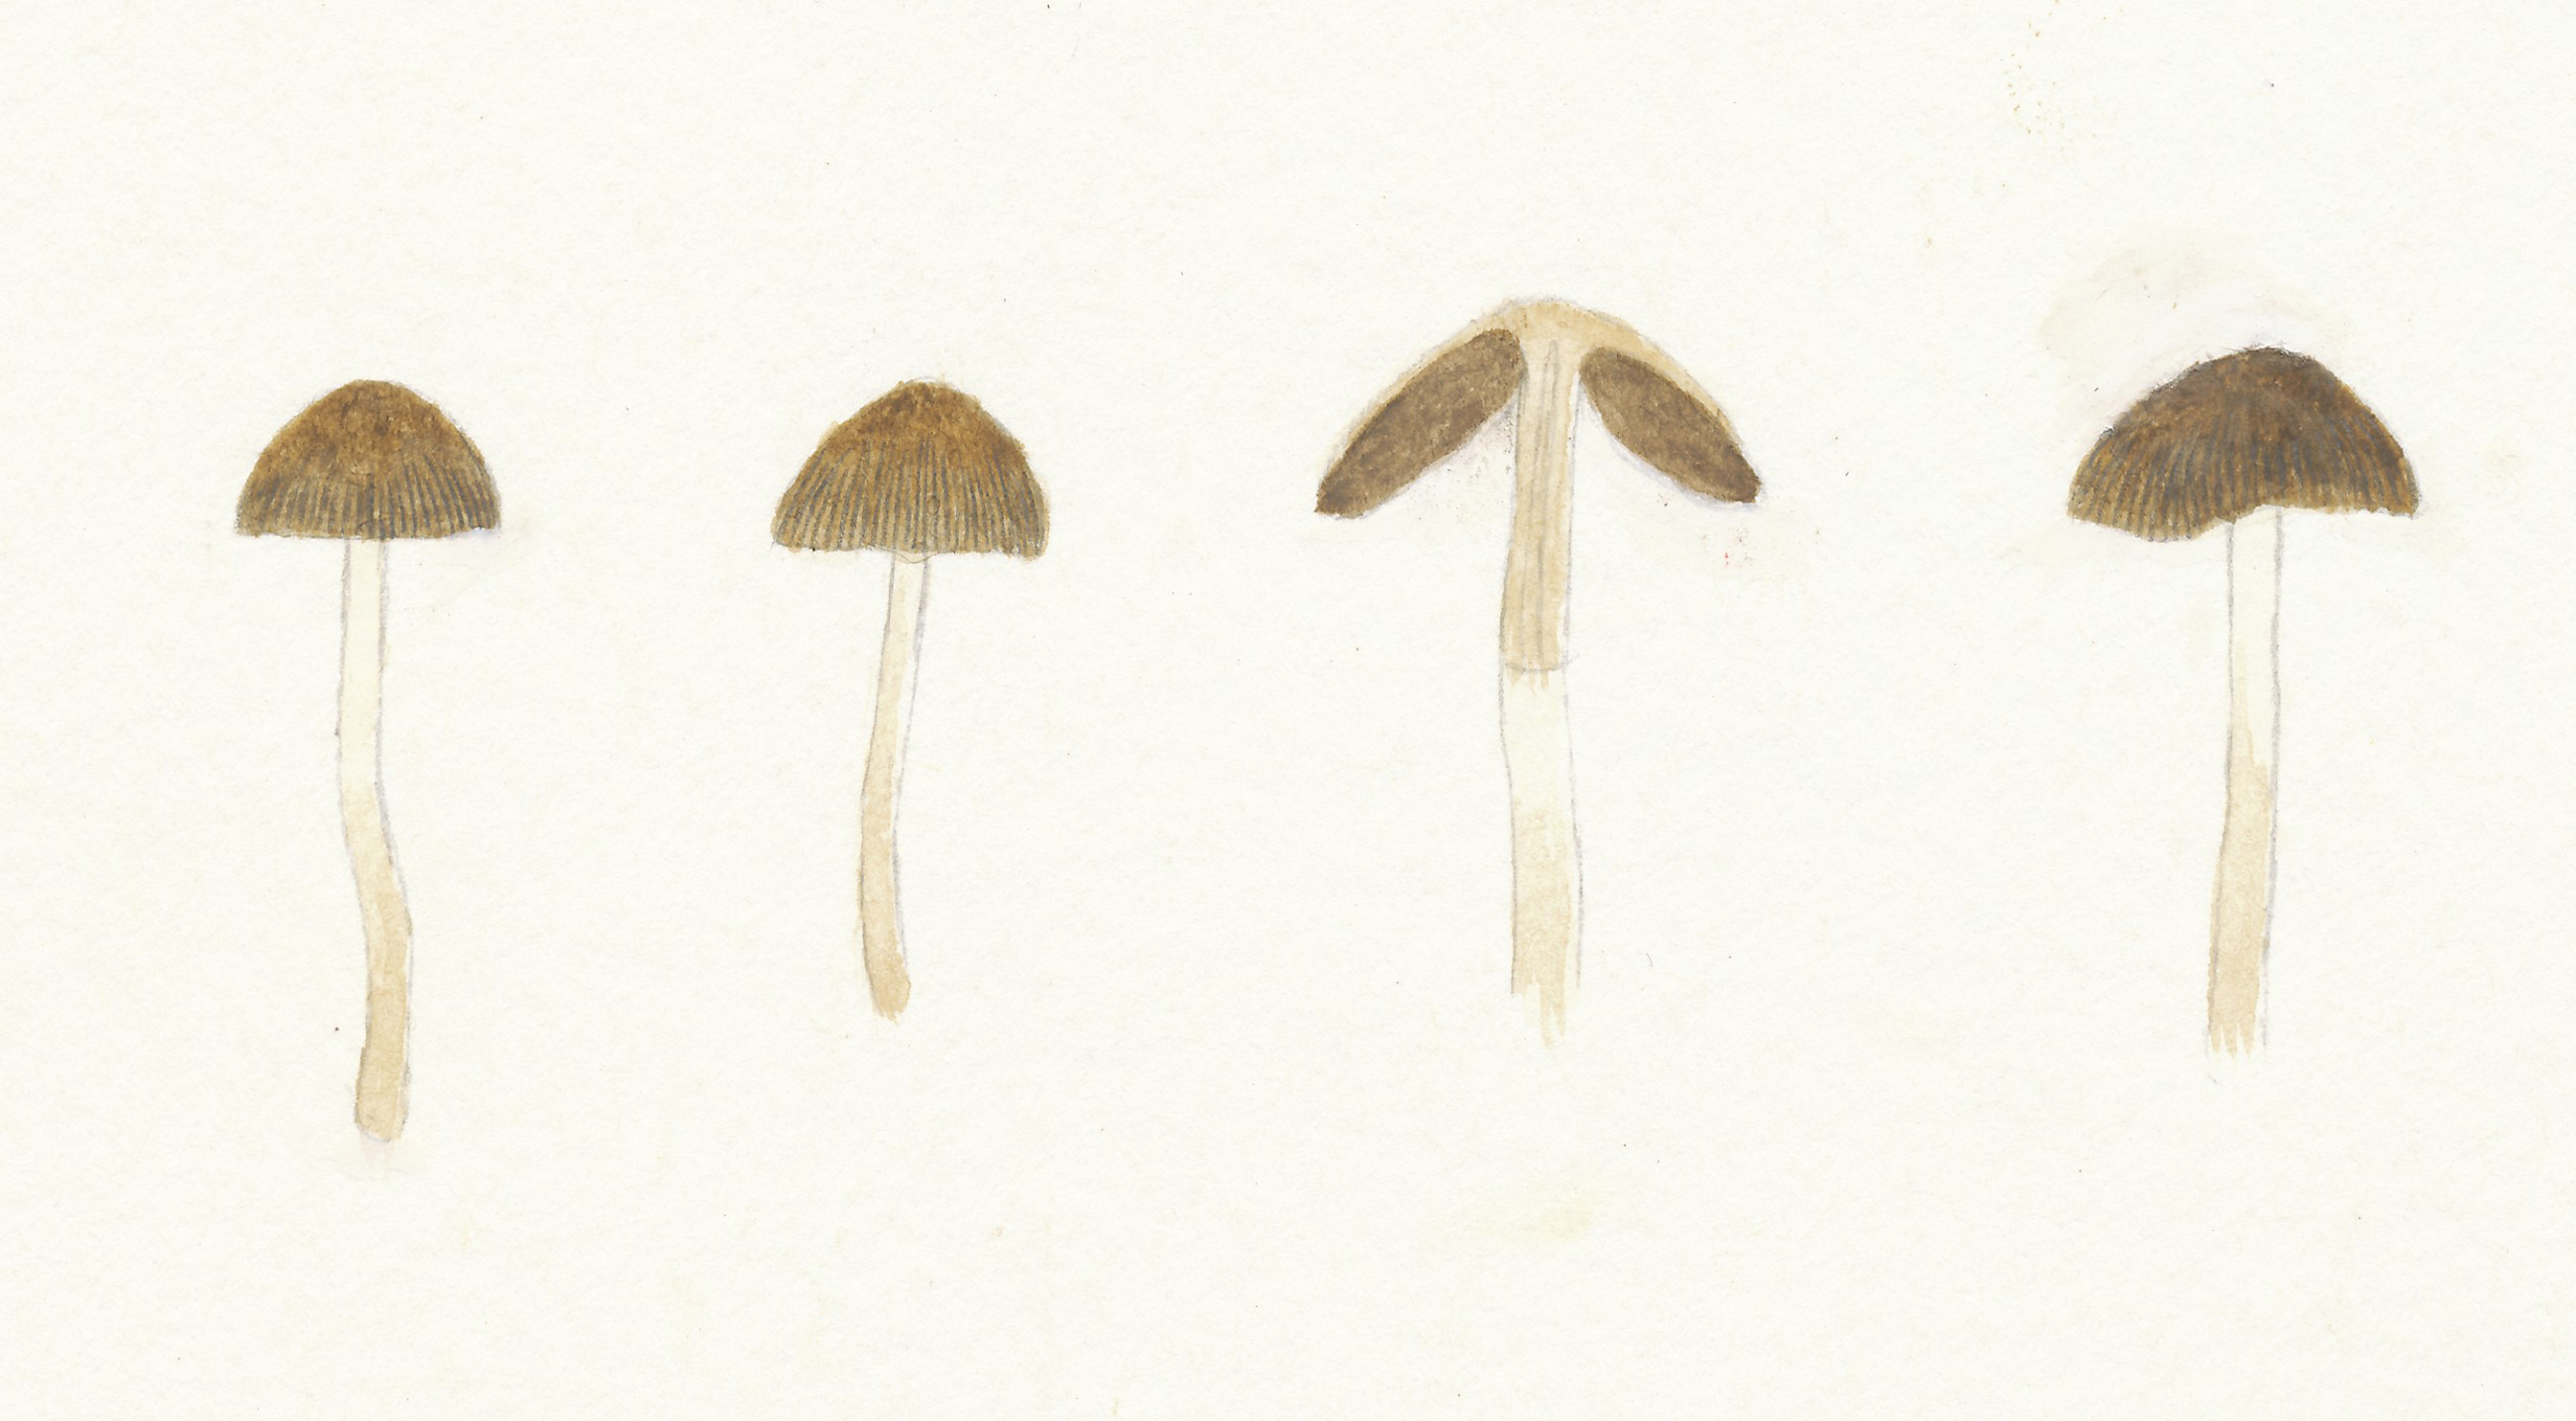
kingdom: Fungi
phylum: Basidiomycota
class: Agaricomycetes
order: Agaricales
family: Psathyrellaceae
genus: Psathyrella
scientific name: Psathyrella obtusata
